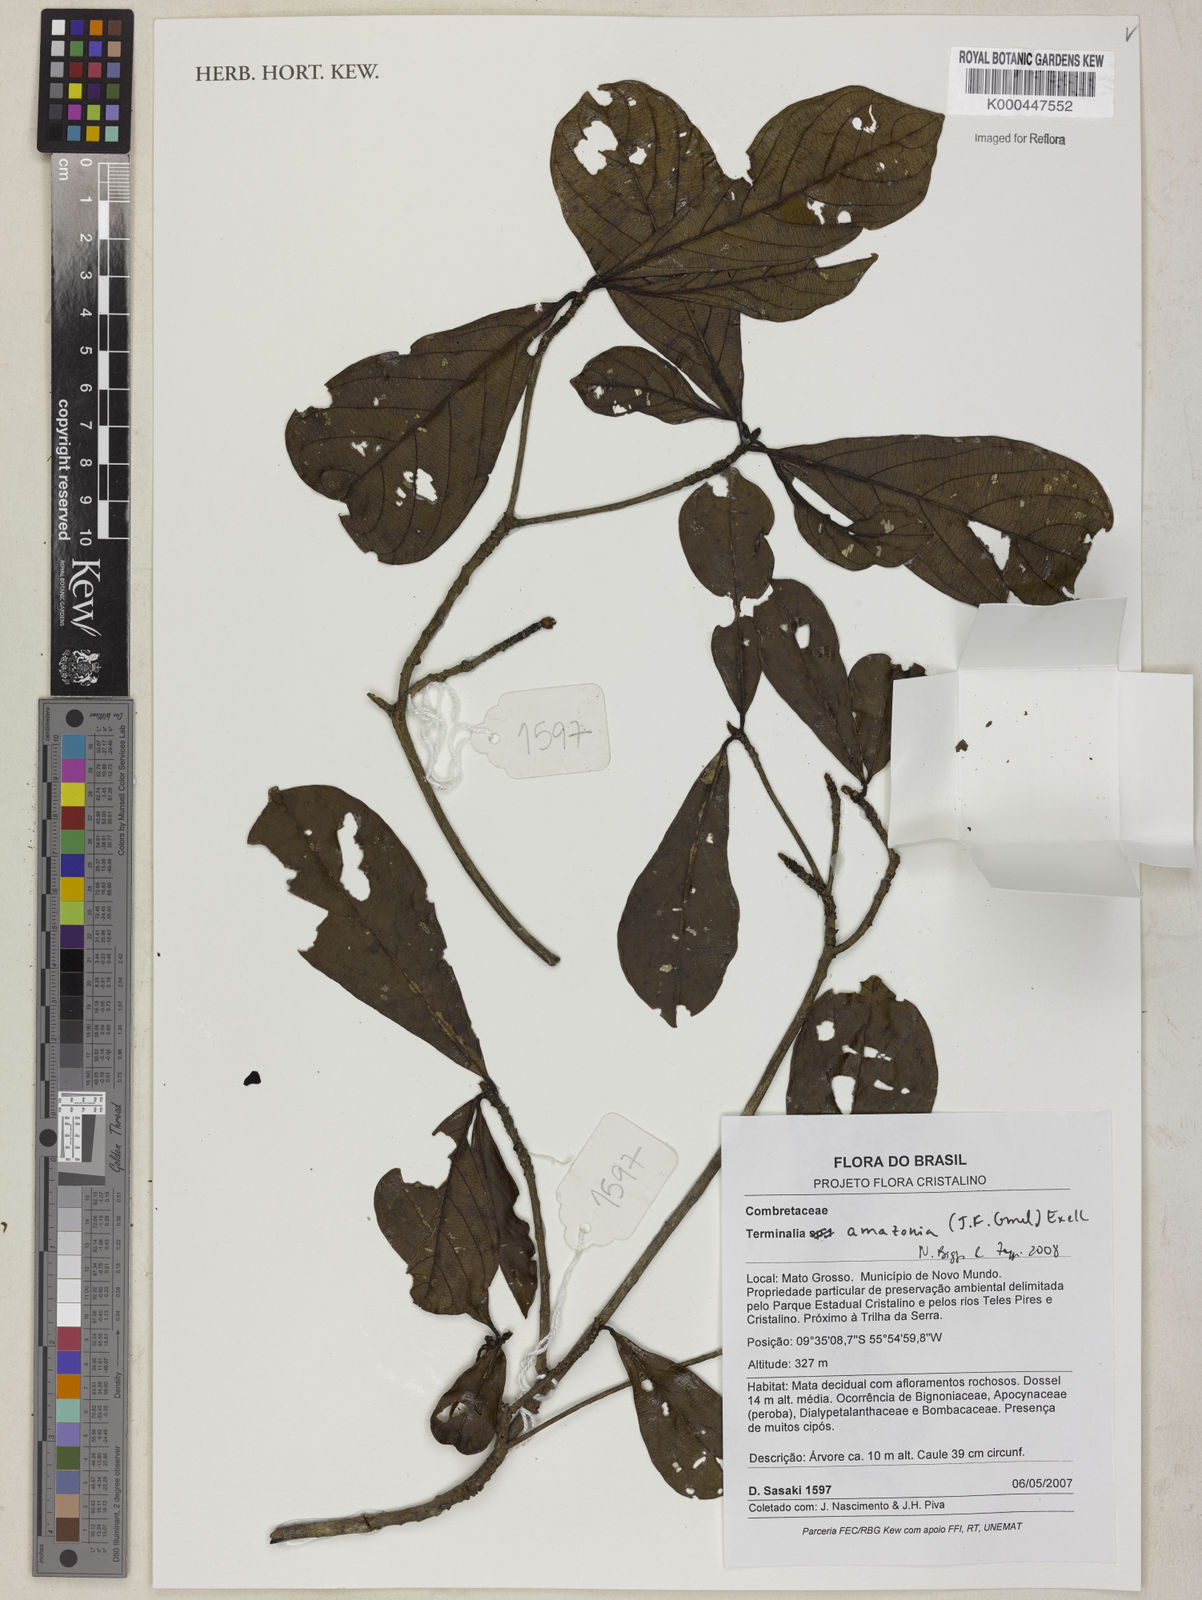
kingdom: Plantae
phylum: Tracheophyta
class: Magnoliopsida
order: Myrtales
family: Combretaceae
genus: Terminalia
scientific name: Terminalia amazonica
